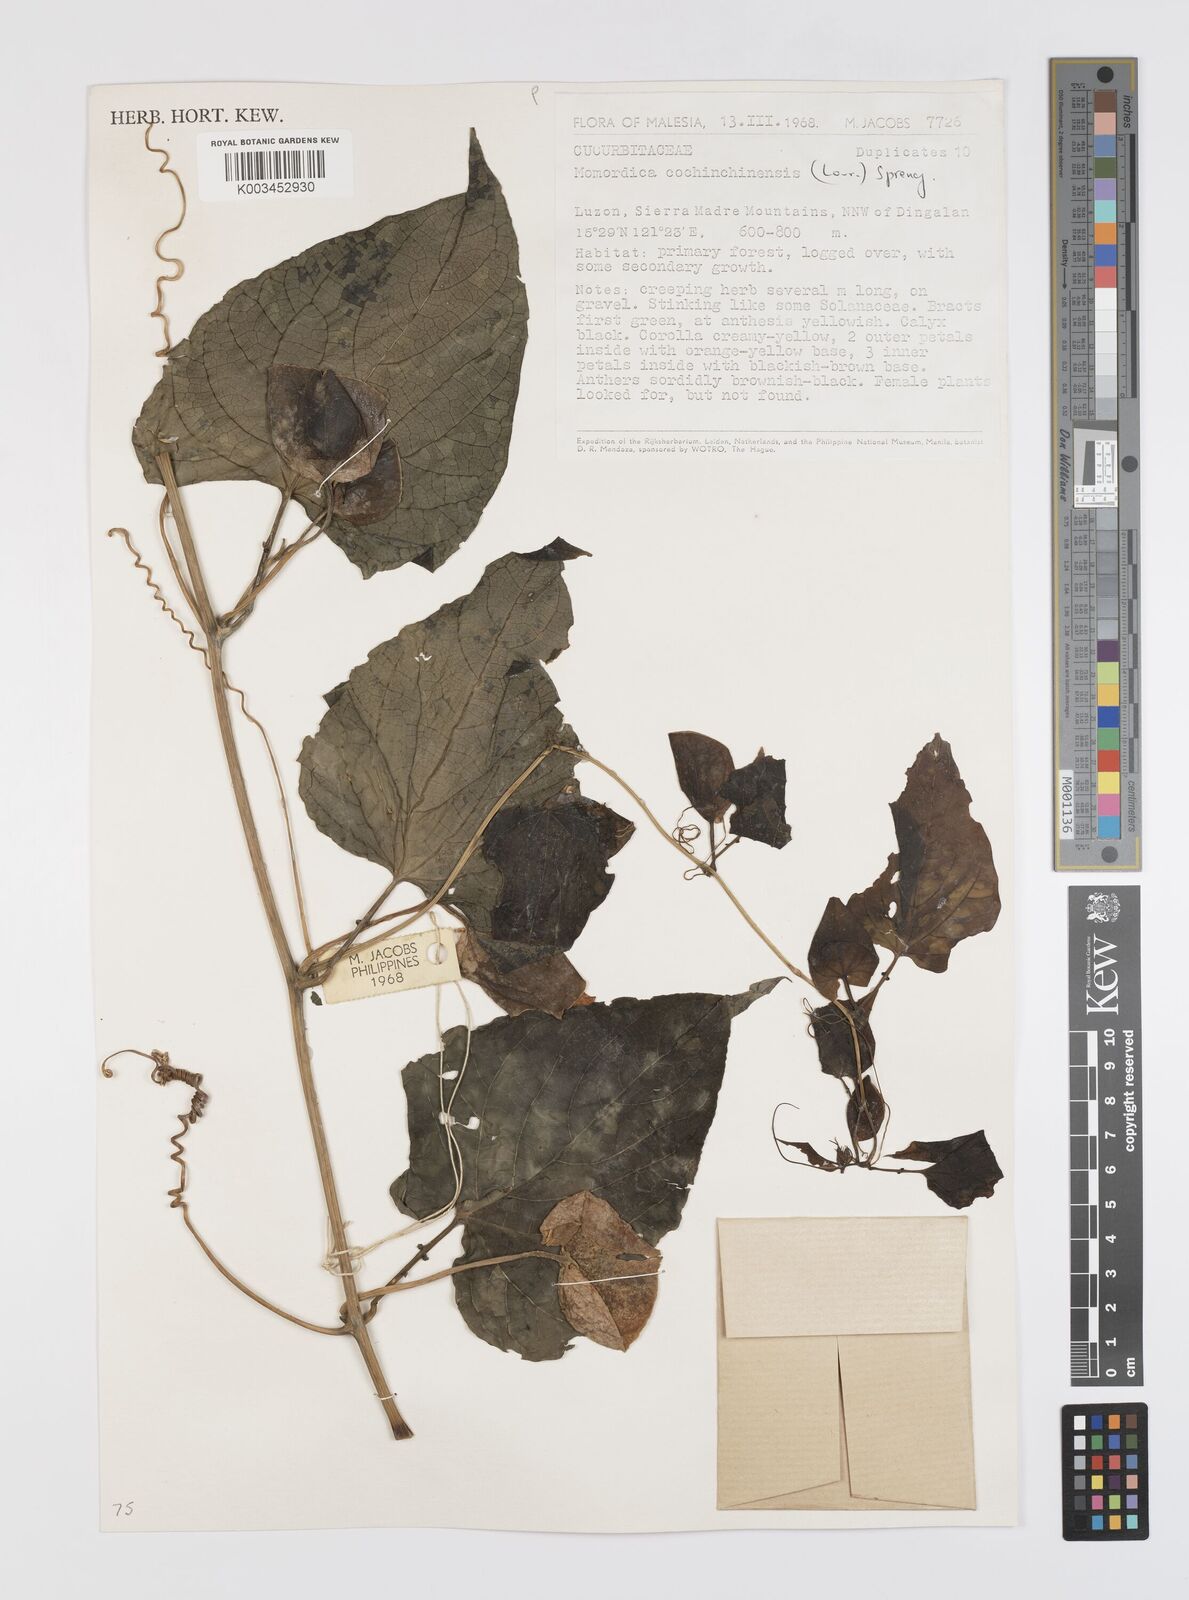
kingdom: Plantae
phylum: Tracheophyta
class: Magnoliopsida
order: Cucurbitales
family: Cucurbitaceae
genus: Momordica
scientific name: Momordica cochinchinensis
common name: Chinese bitter-cucumber
